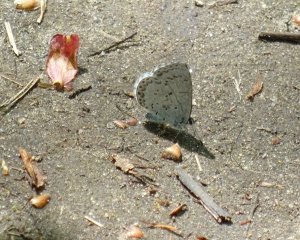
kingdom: Animalia
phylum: Arthropoda
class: Insecta
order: Lepidoptera
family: Lycaenidae
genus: Celastrina
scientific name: Celastrina lucia
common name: Northern Spring Azure
